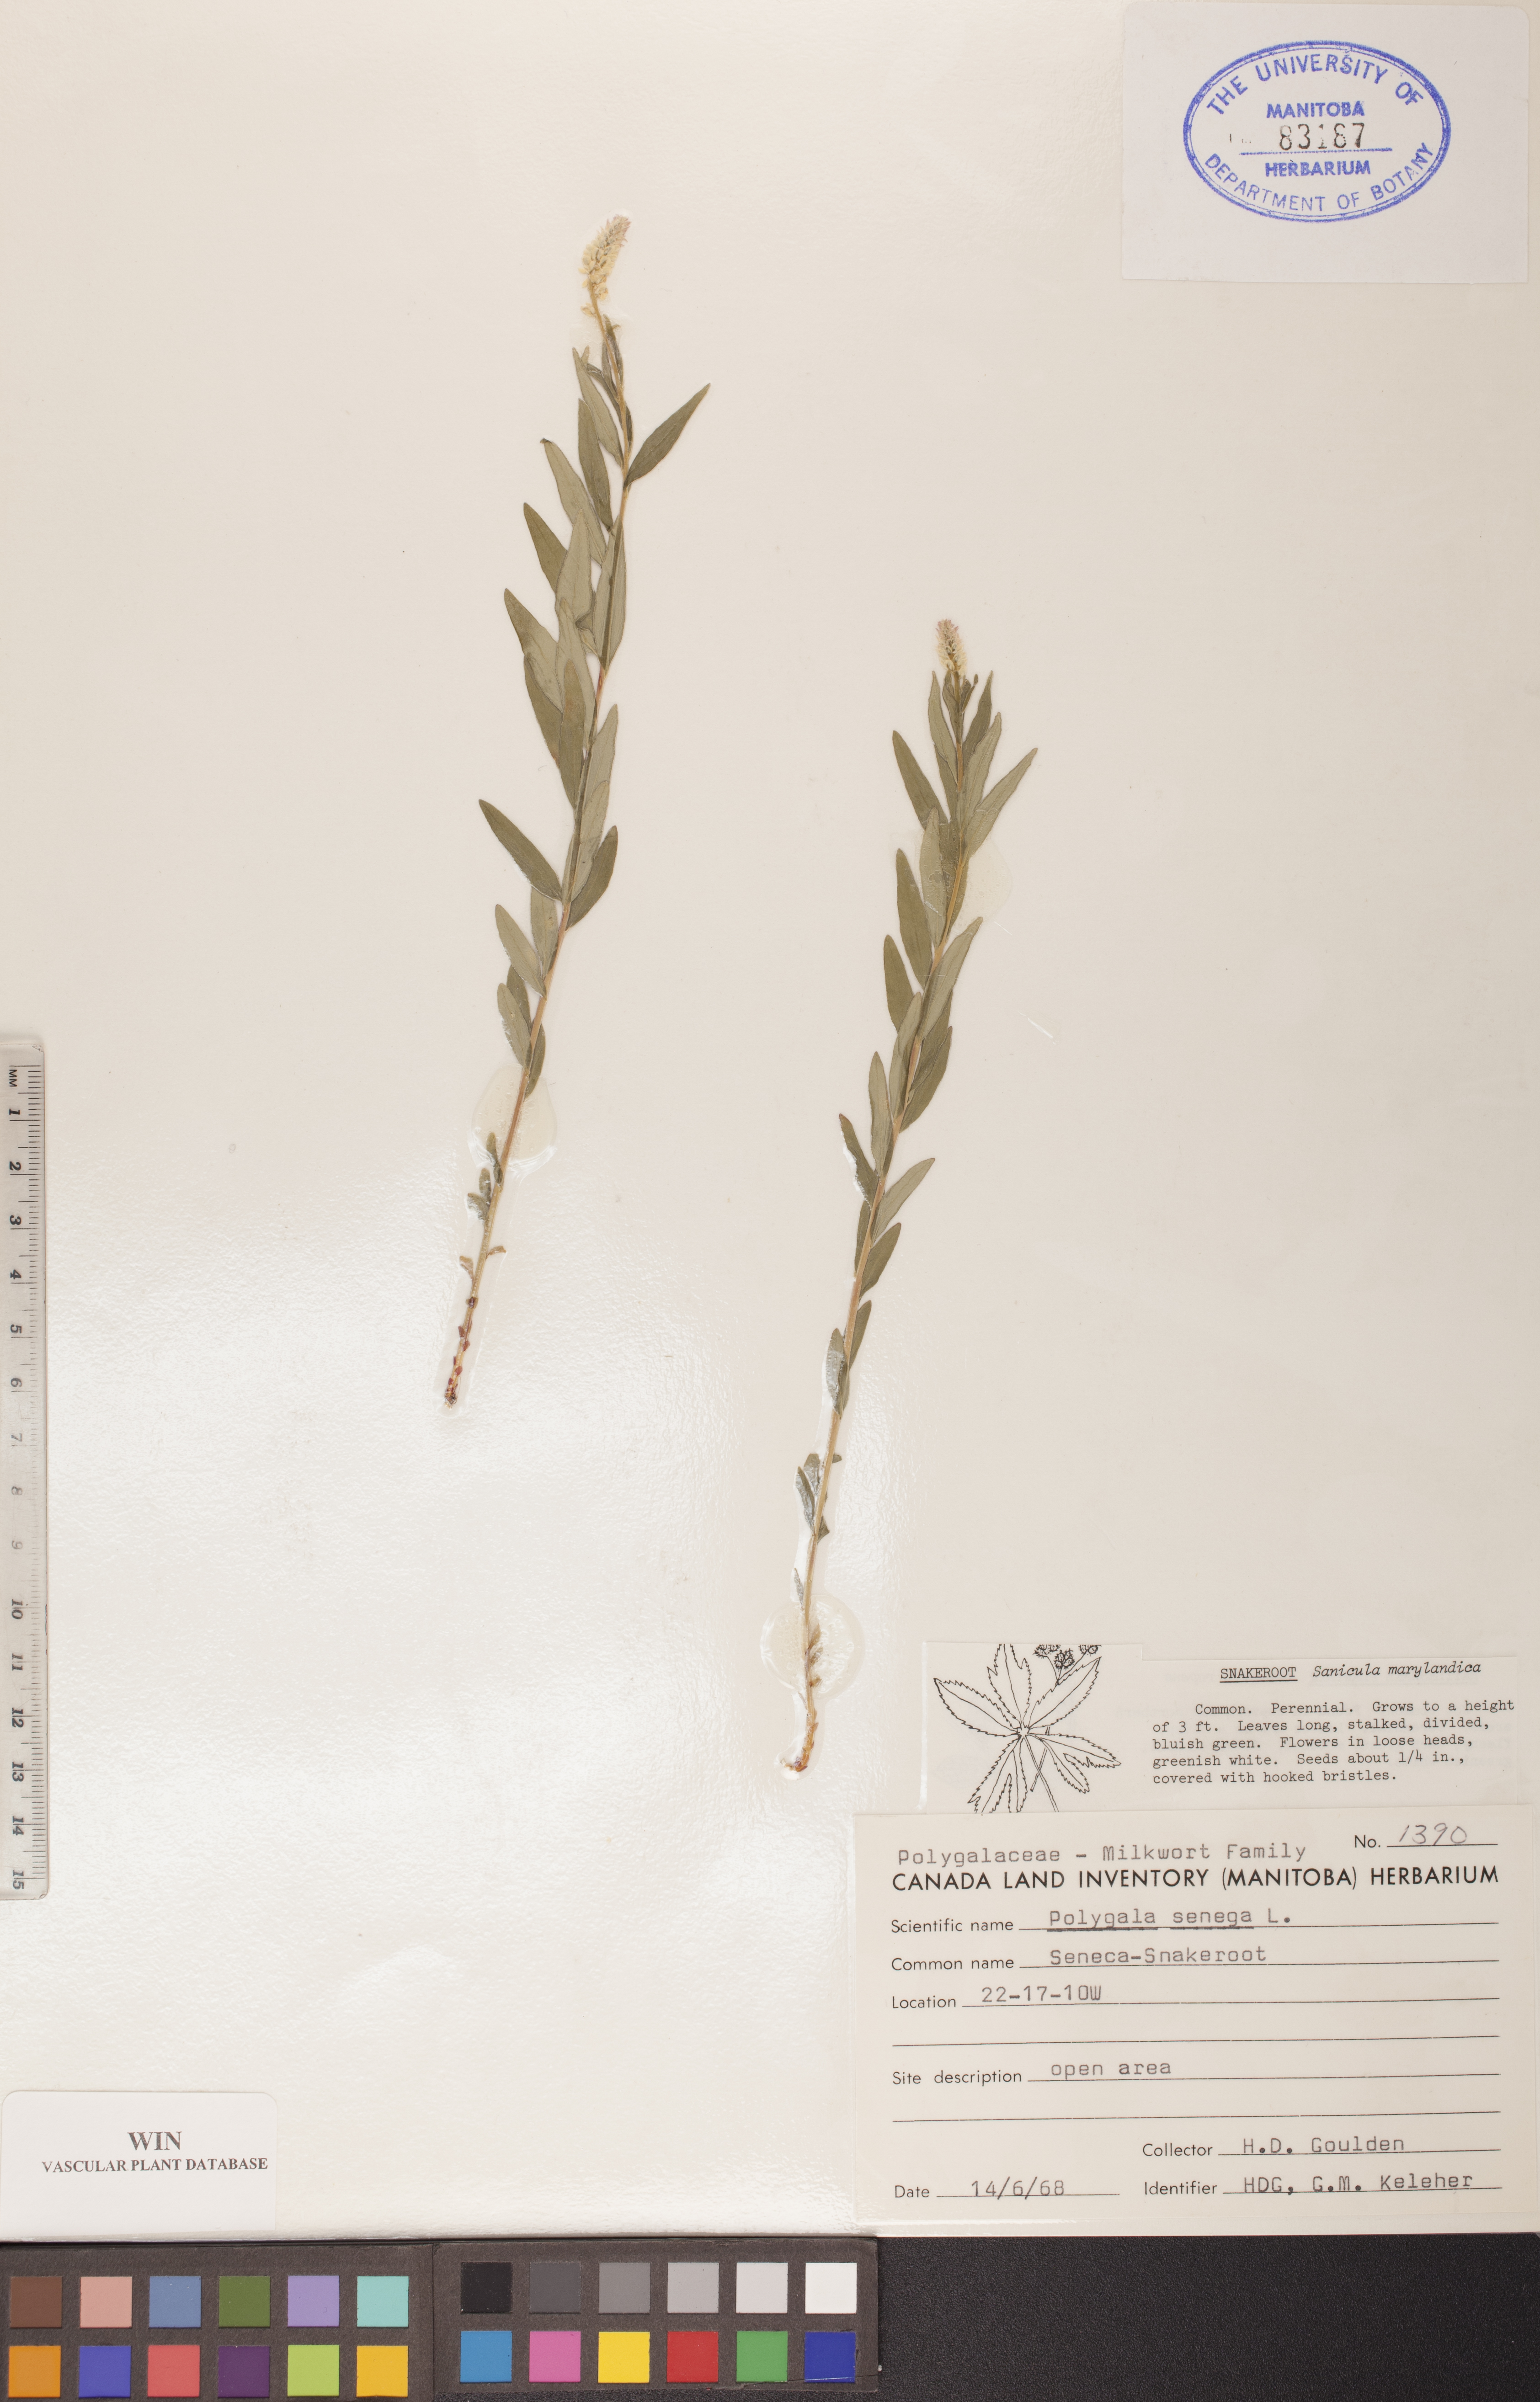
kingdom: Plantae
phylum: Tracheophyta
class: Magnoliopsida
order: Fabales
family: Polygalaceae
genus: Polygala
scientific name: Polygala senega
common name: Seneca snakeroot
